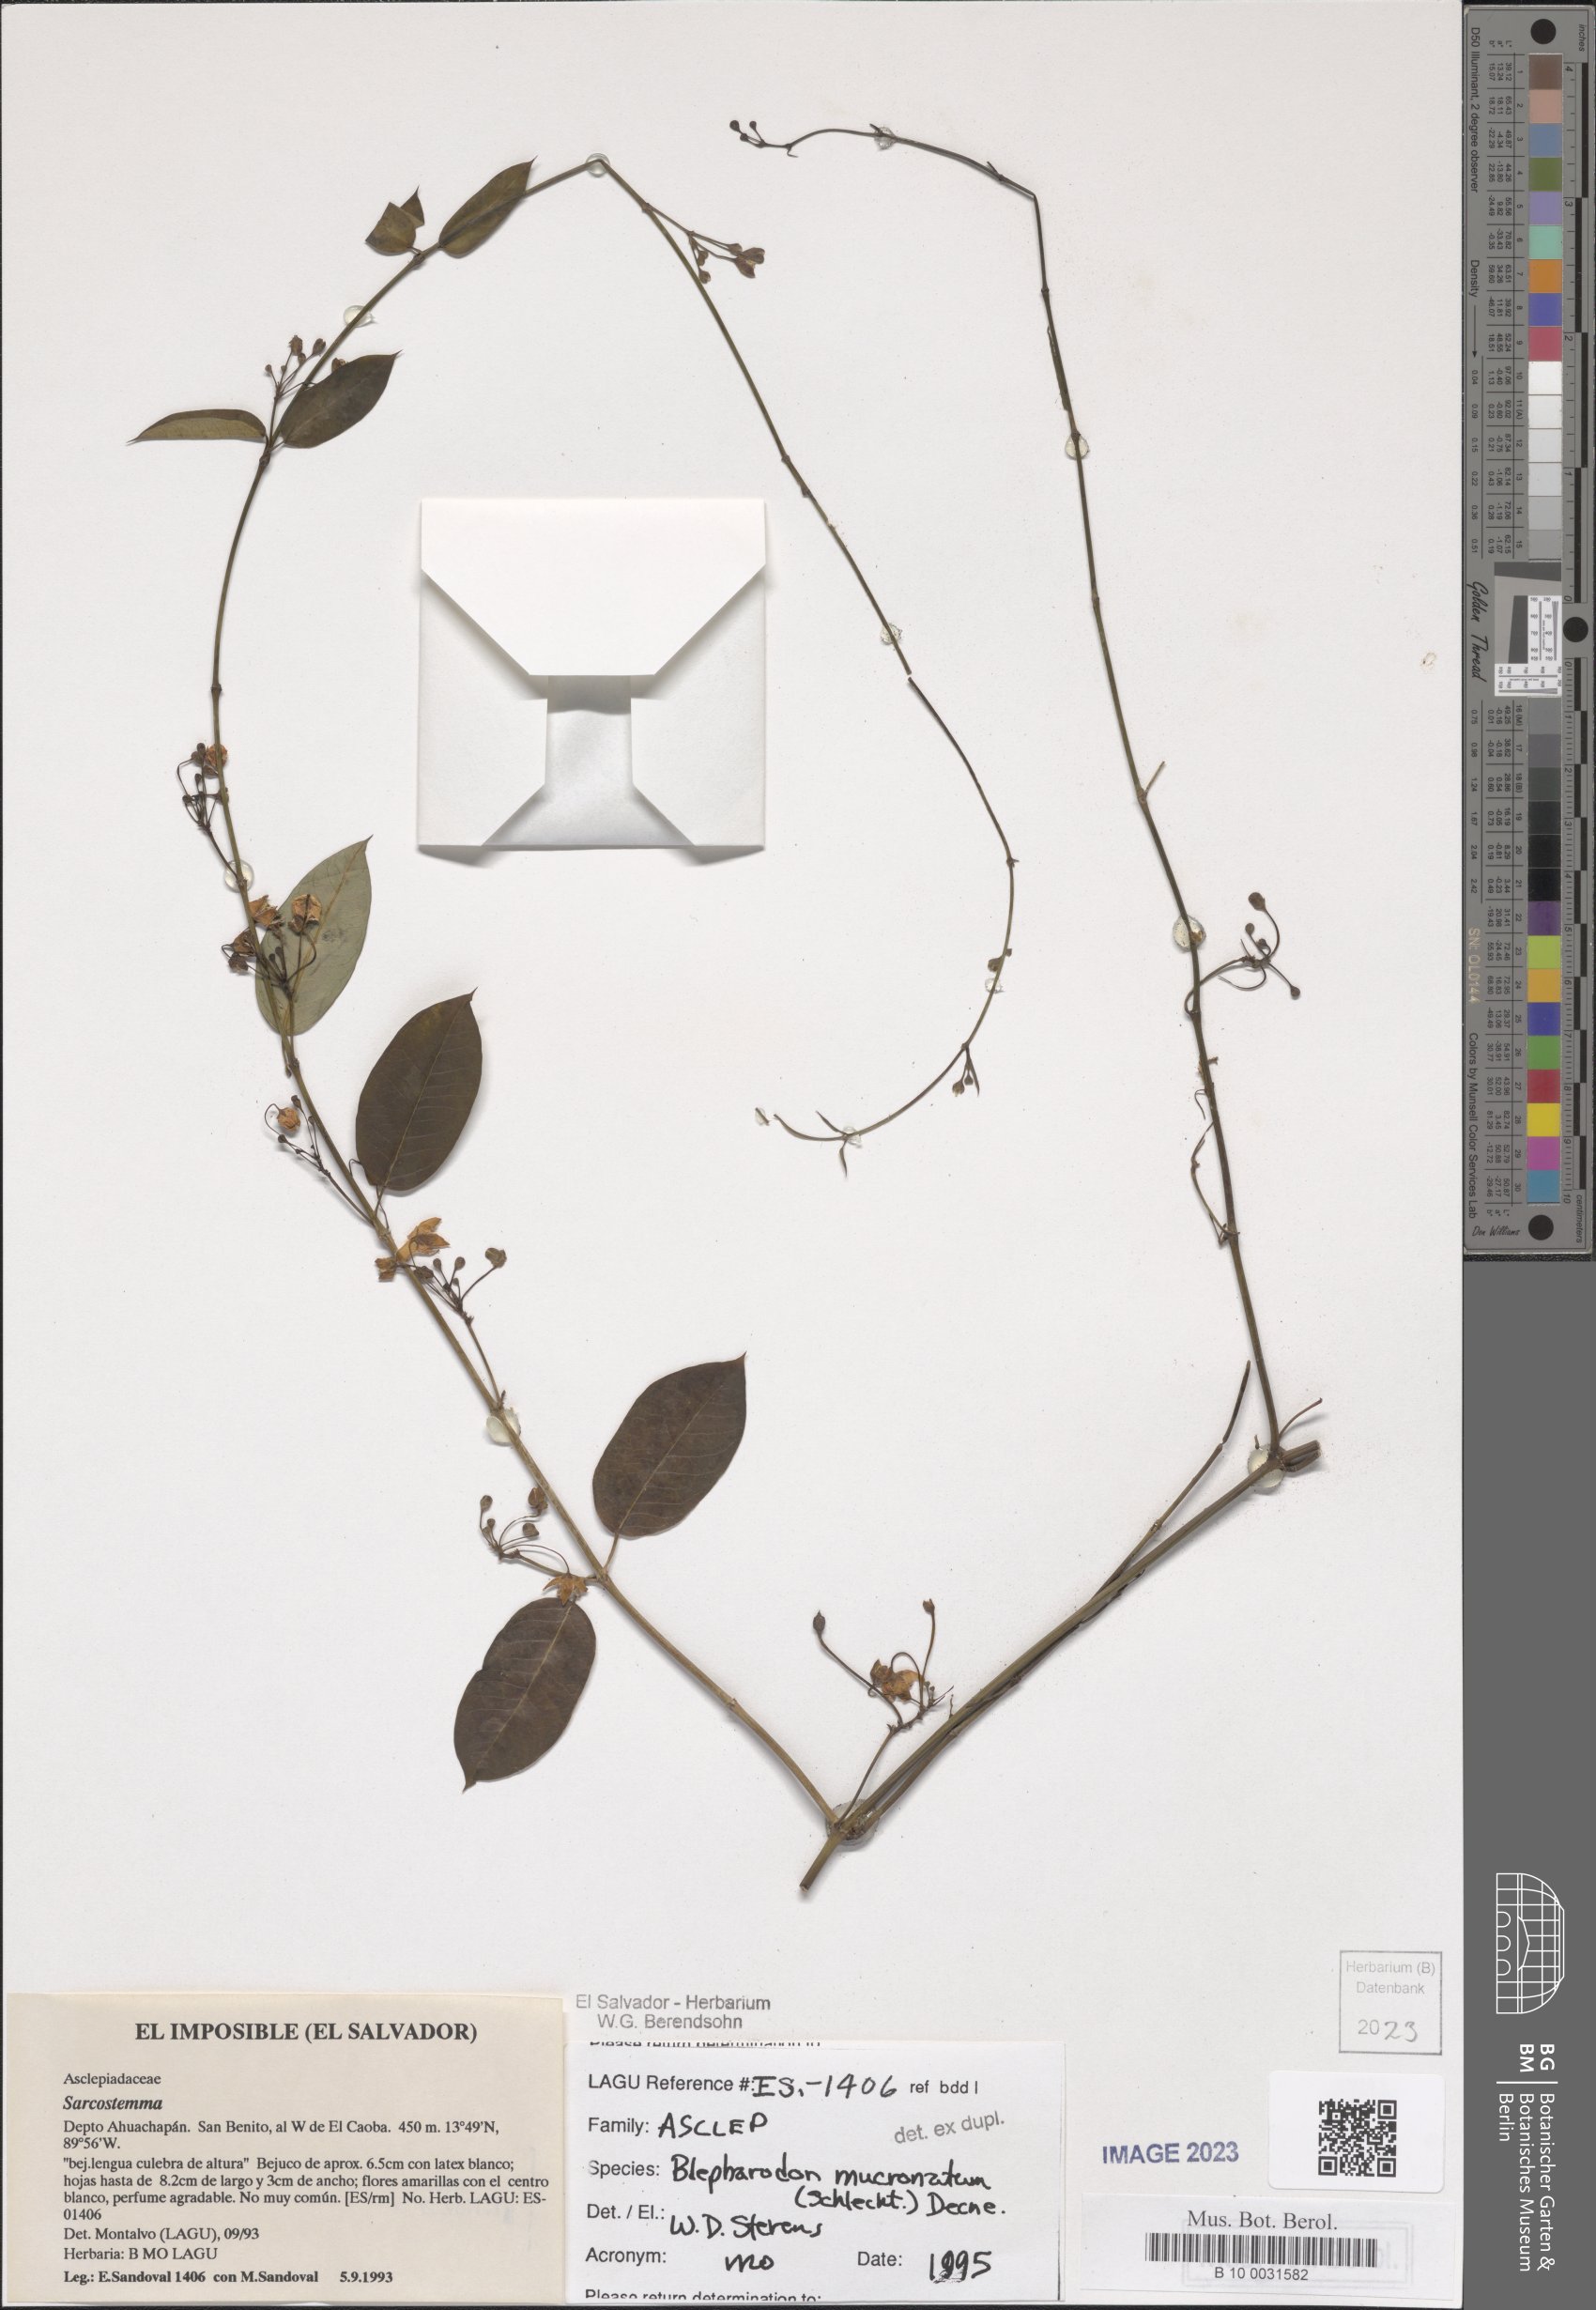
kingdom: Plantae
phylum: Tracheophyta
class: Magnoliopsida
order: Gentianales
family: Apocynaceae
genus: Vailia
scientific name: Vailia anomala
